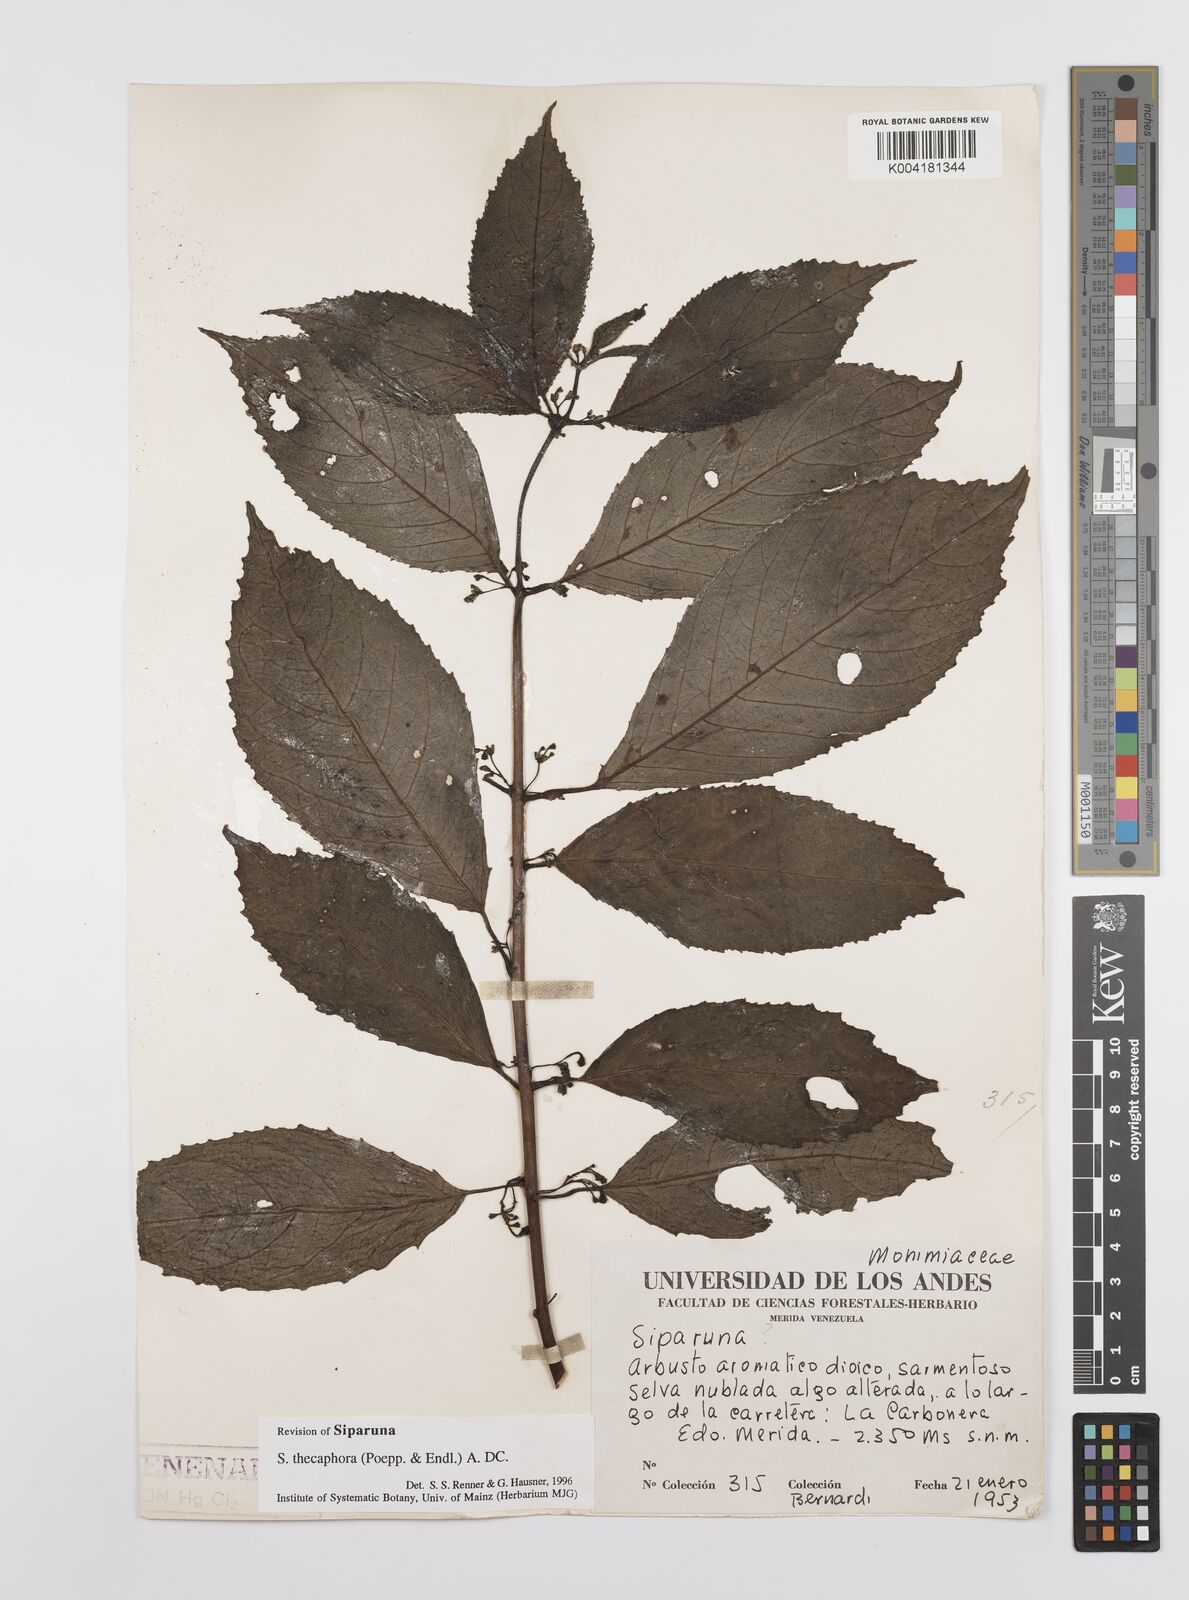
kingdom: Plantae
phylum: Tracheophyta
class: Magnoliopsida
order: Laurales
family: Siparunaceae
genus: Siparuna
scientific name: Siparuna thecaphora
